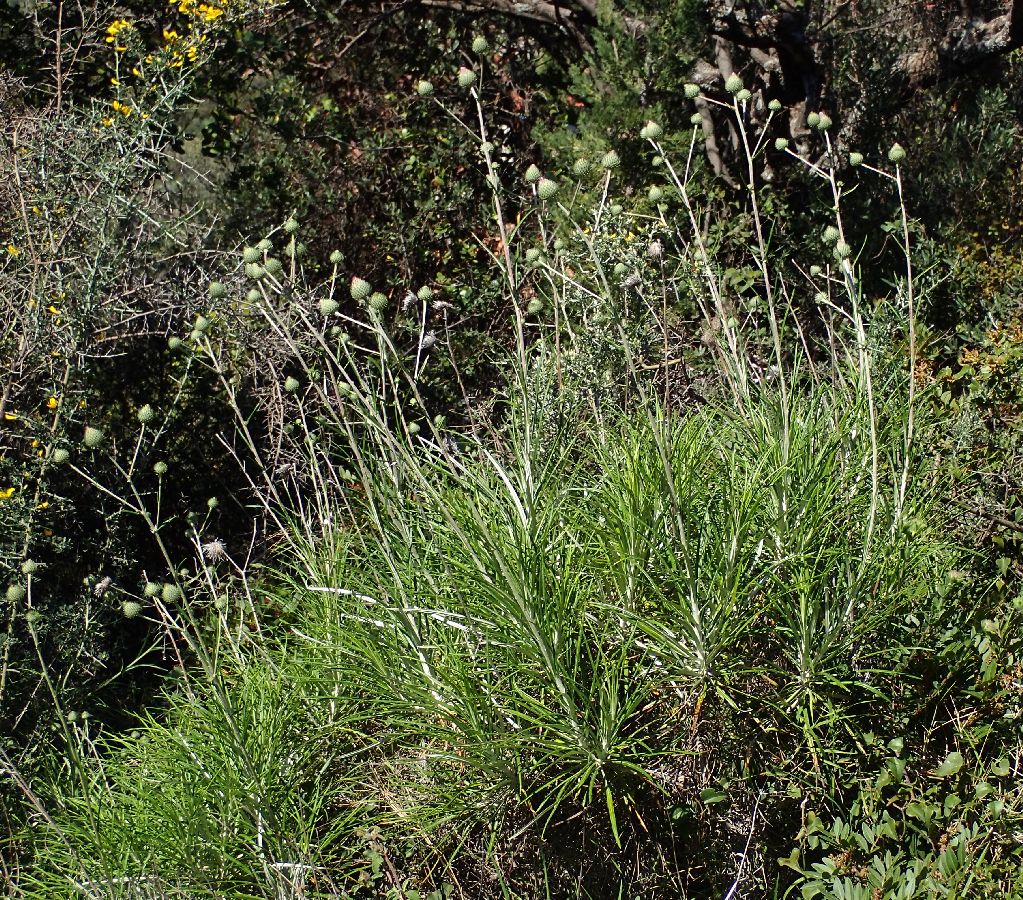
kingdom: Plantae
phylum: Tracheophyta
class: Magnoliopsida
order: Asterales
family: Asteraceae
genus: Ptilostemon
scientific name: Ptilostemon chamaepeuce
